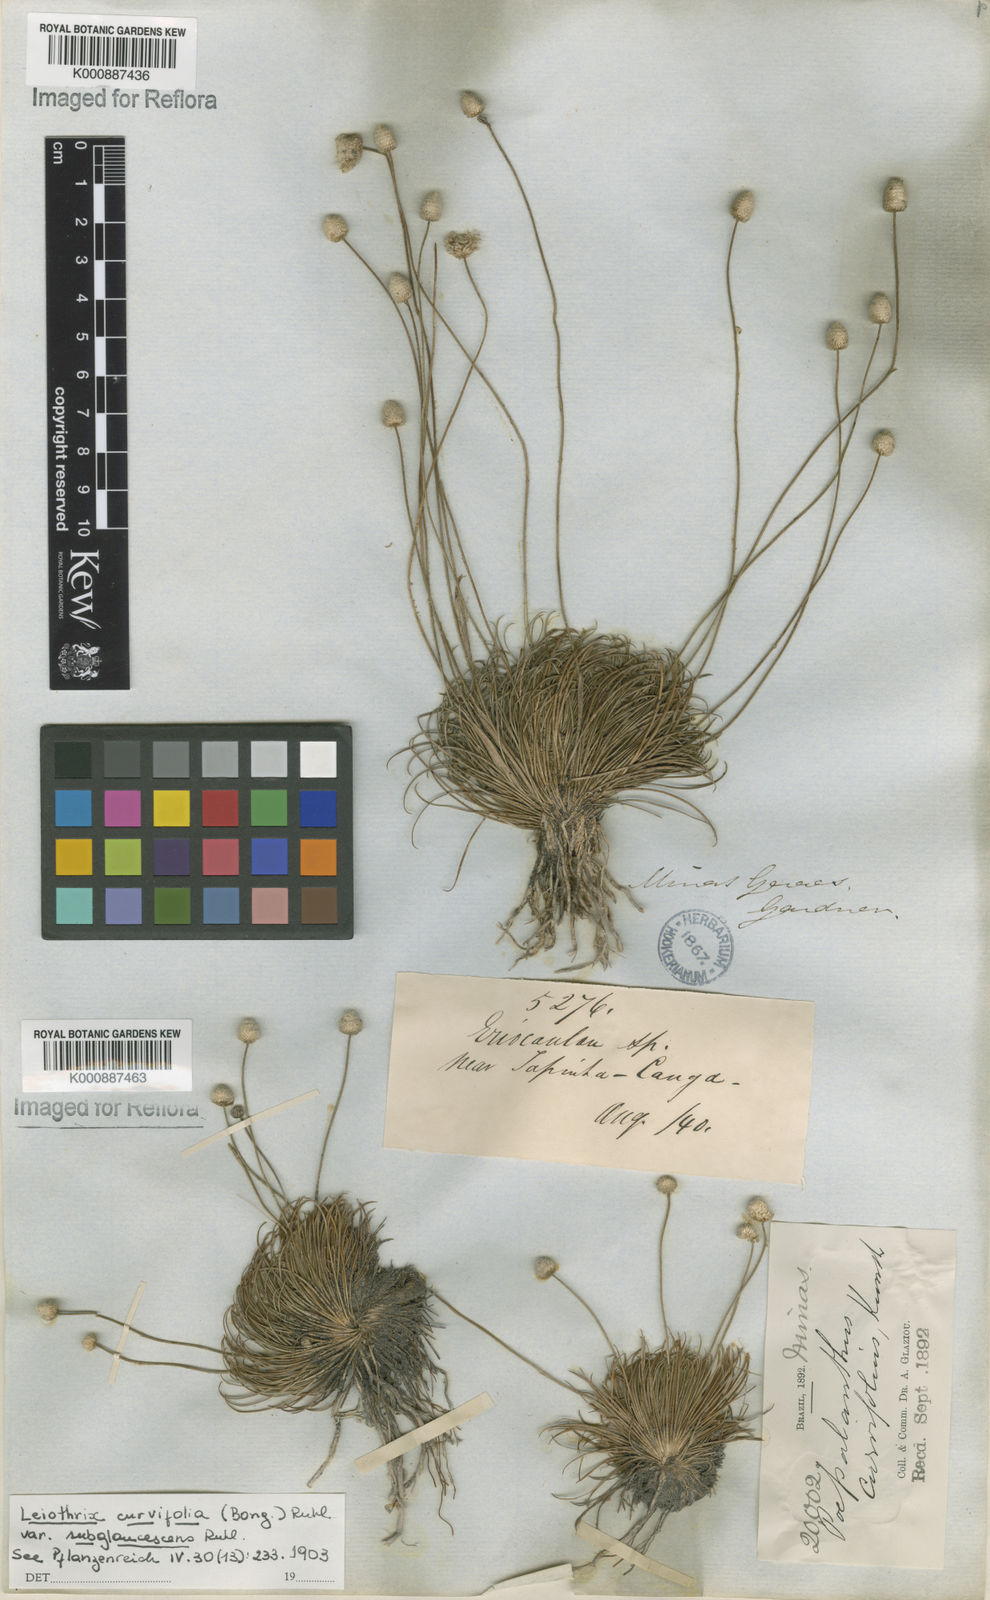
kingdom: Plantae
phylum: Tracheophyta
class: Liliopsida
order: Poales
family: Eriocaulaceae
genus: Leiothrix
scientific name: Leiothrix curvifolia
